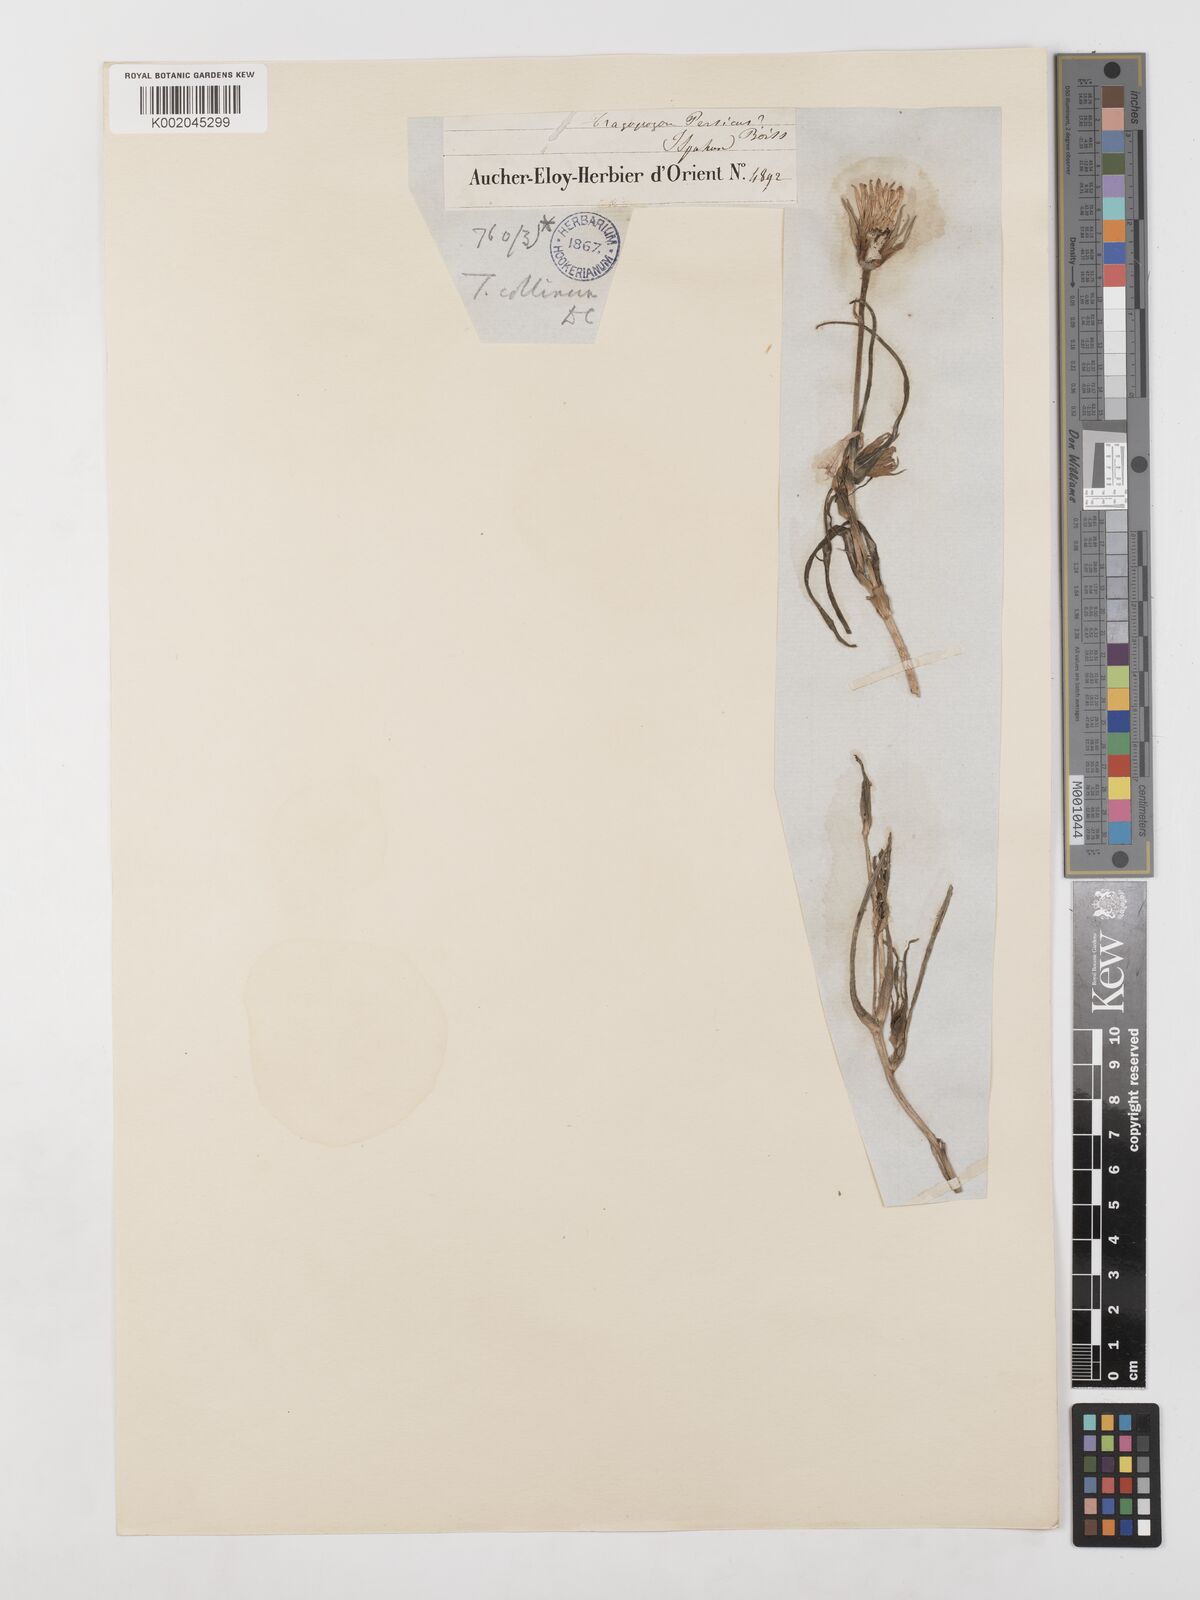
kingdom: Plantae
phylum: Tracheophyta
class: Magnoliopsida
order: Asterales
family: Asteraceae
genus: Tragopogon
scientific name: Tragopogon collinus
